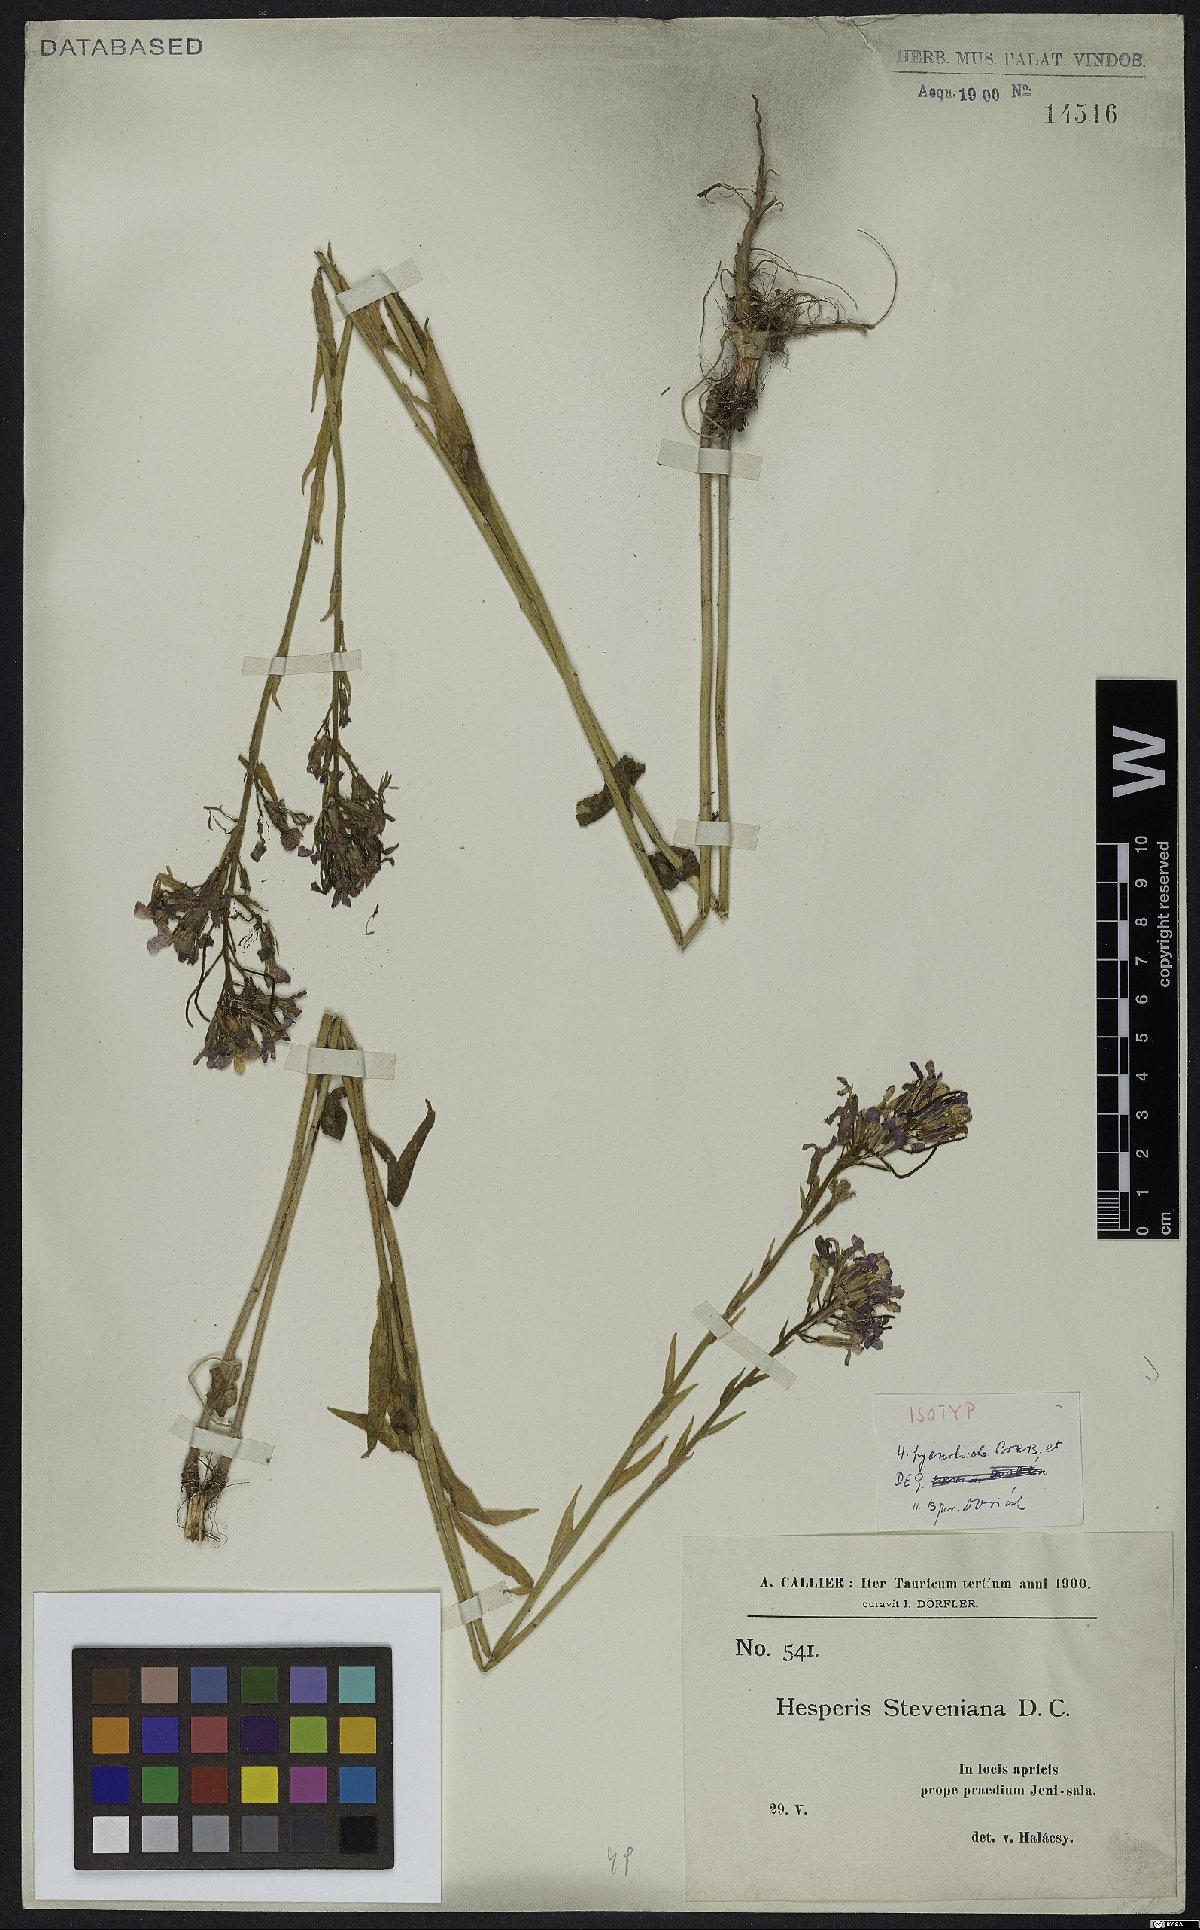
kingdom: Plantae
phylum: Tracheophyta
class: Magnoliopsida
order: Brassicales
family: Brassicaceae
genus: Hesperis
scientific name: Hesperis pycnotricha
